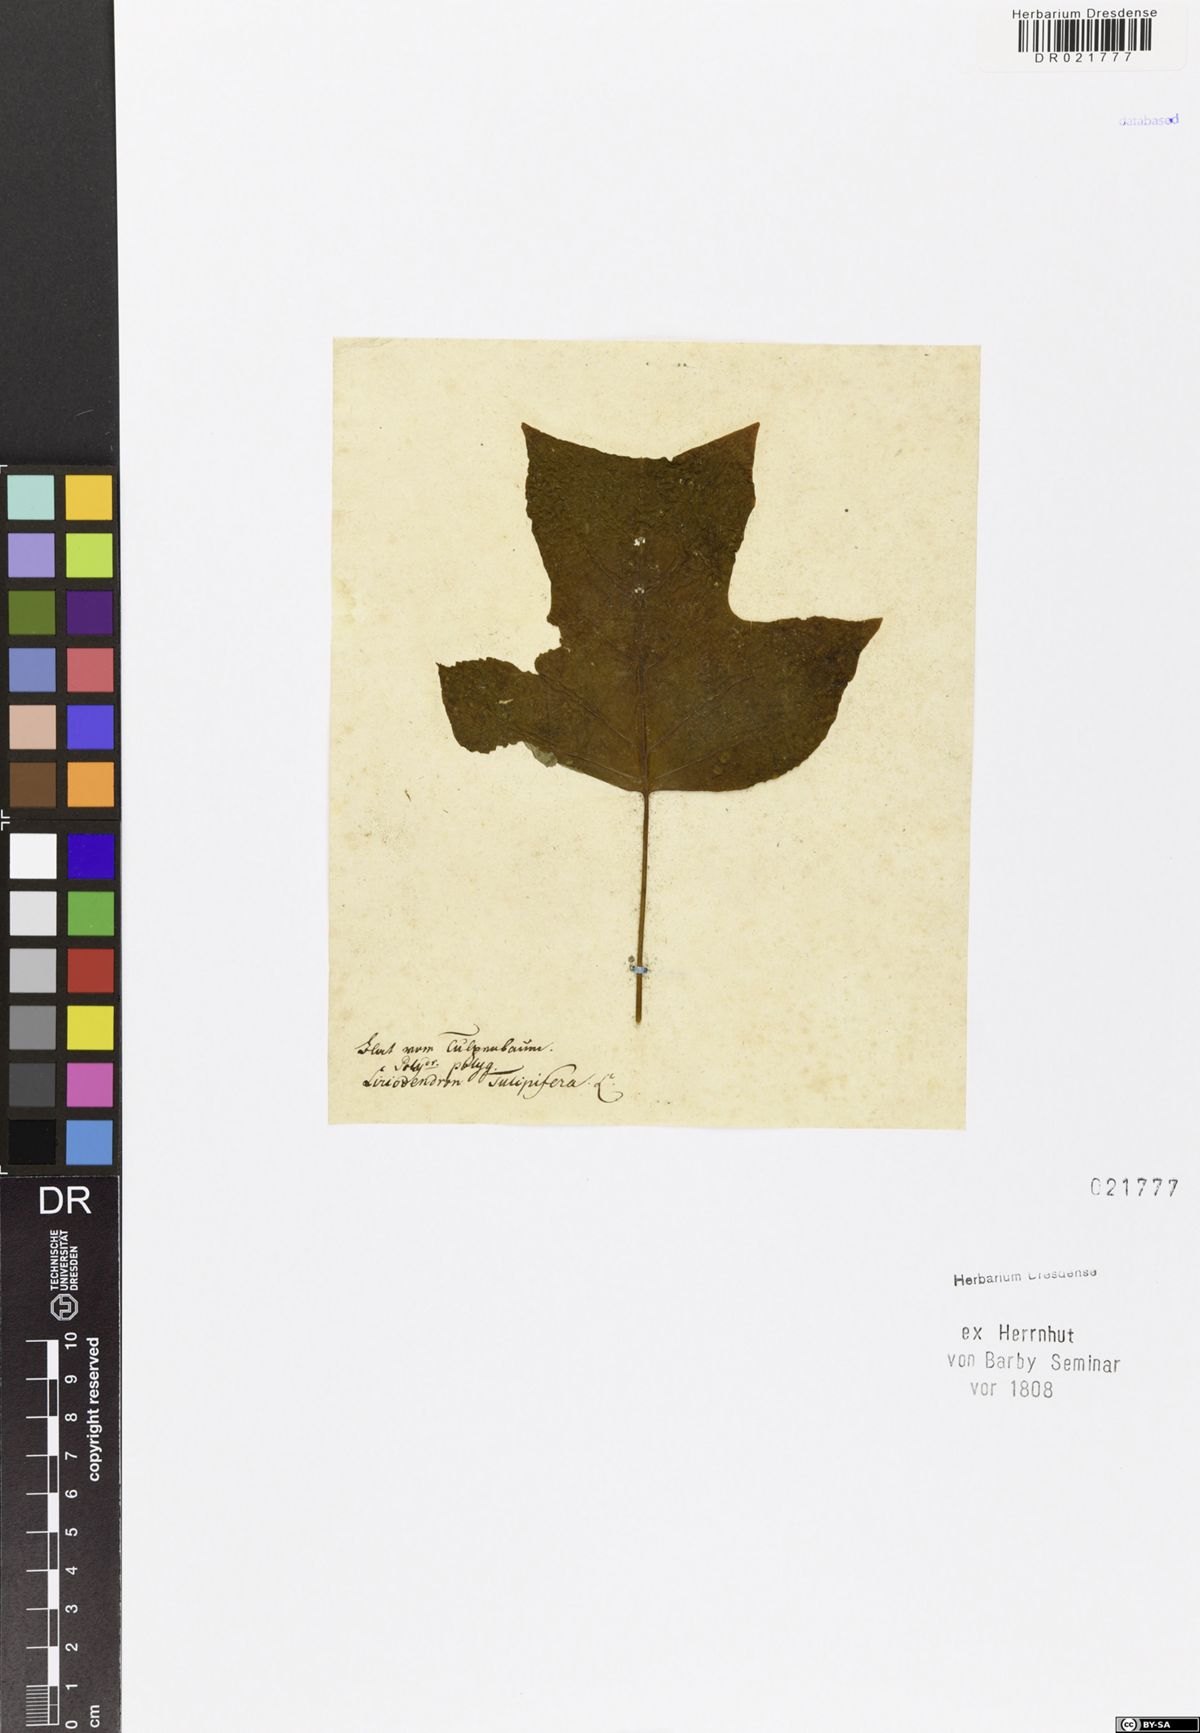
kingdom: Plantae
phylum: Tracheophyta
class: Magnoliopsida
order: Magnoliales
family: Magnoliaceae
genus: Liriodendron
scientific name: Liriodendron tulipifera
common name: Tulip tree
